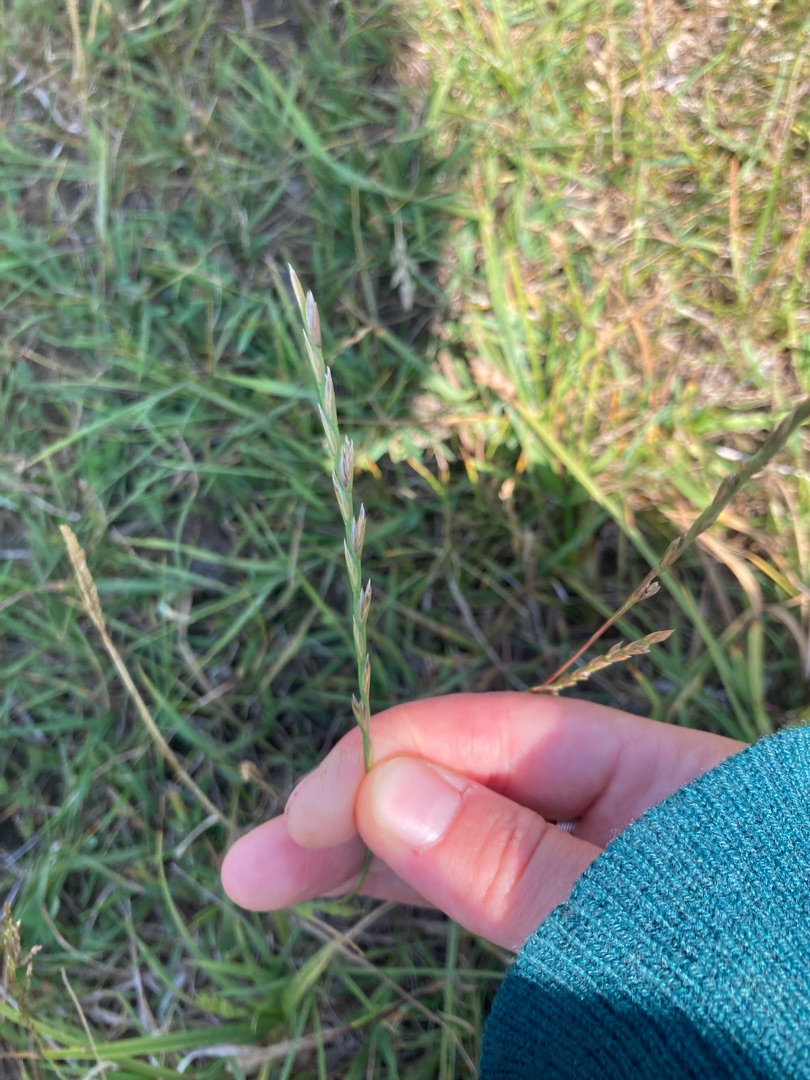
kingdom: Plantae
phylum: Tracheophyta
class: Liliopsida
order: Poales
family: Poaceae
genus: Lolium
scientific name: Lolium perenne
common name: Almindelig rajgræs
